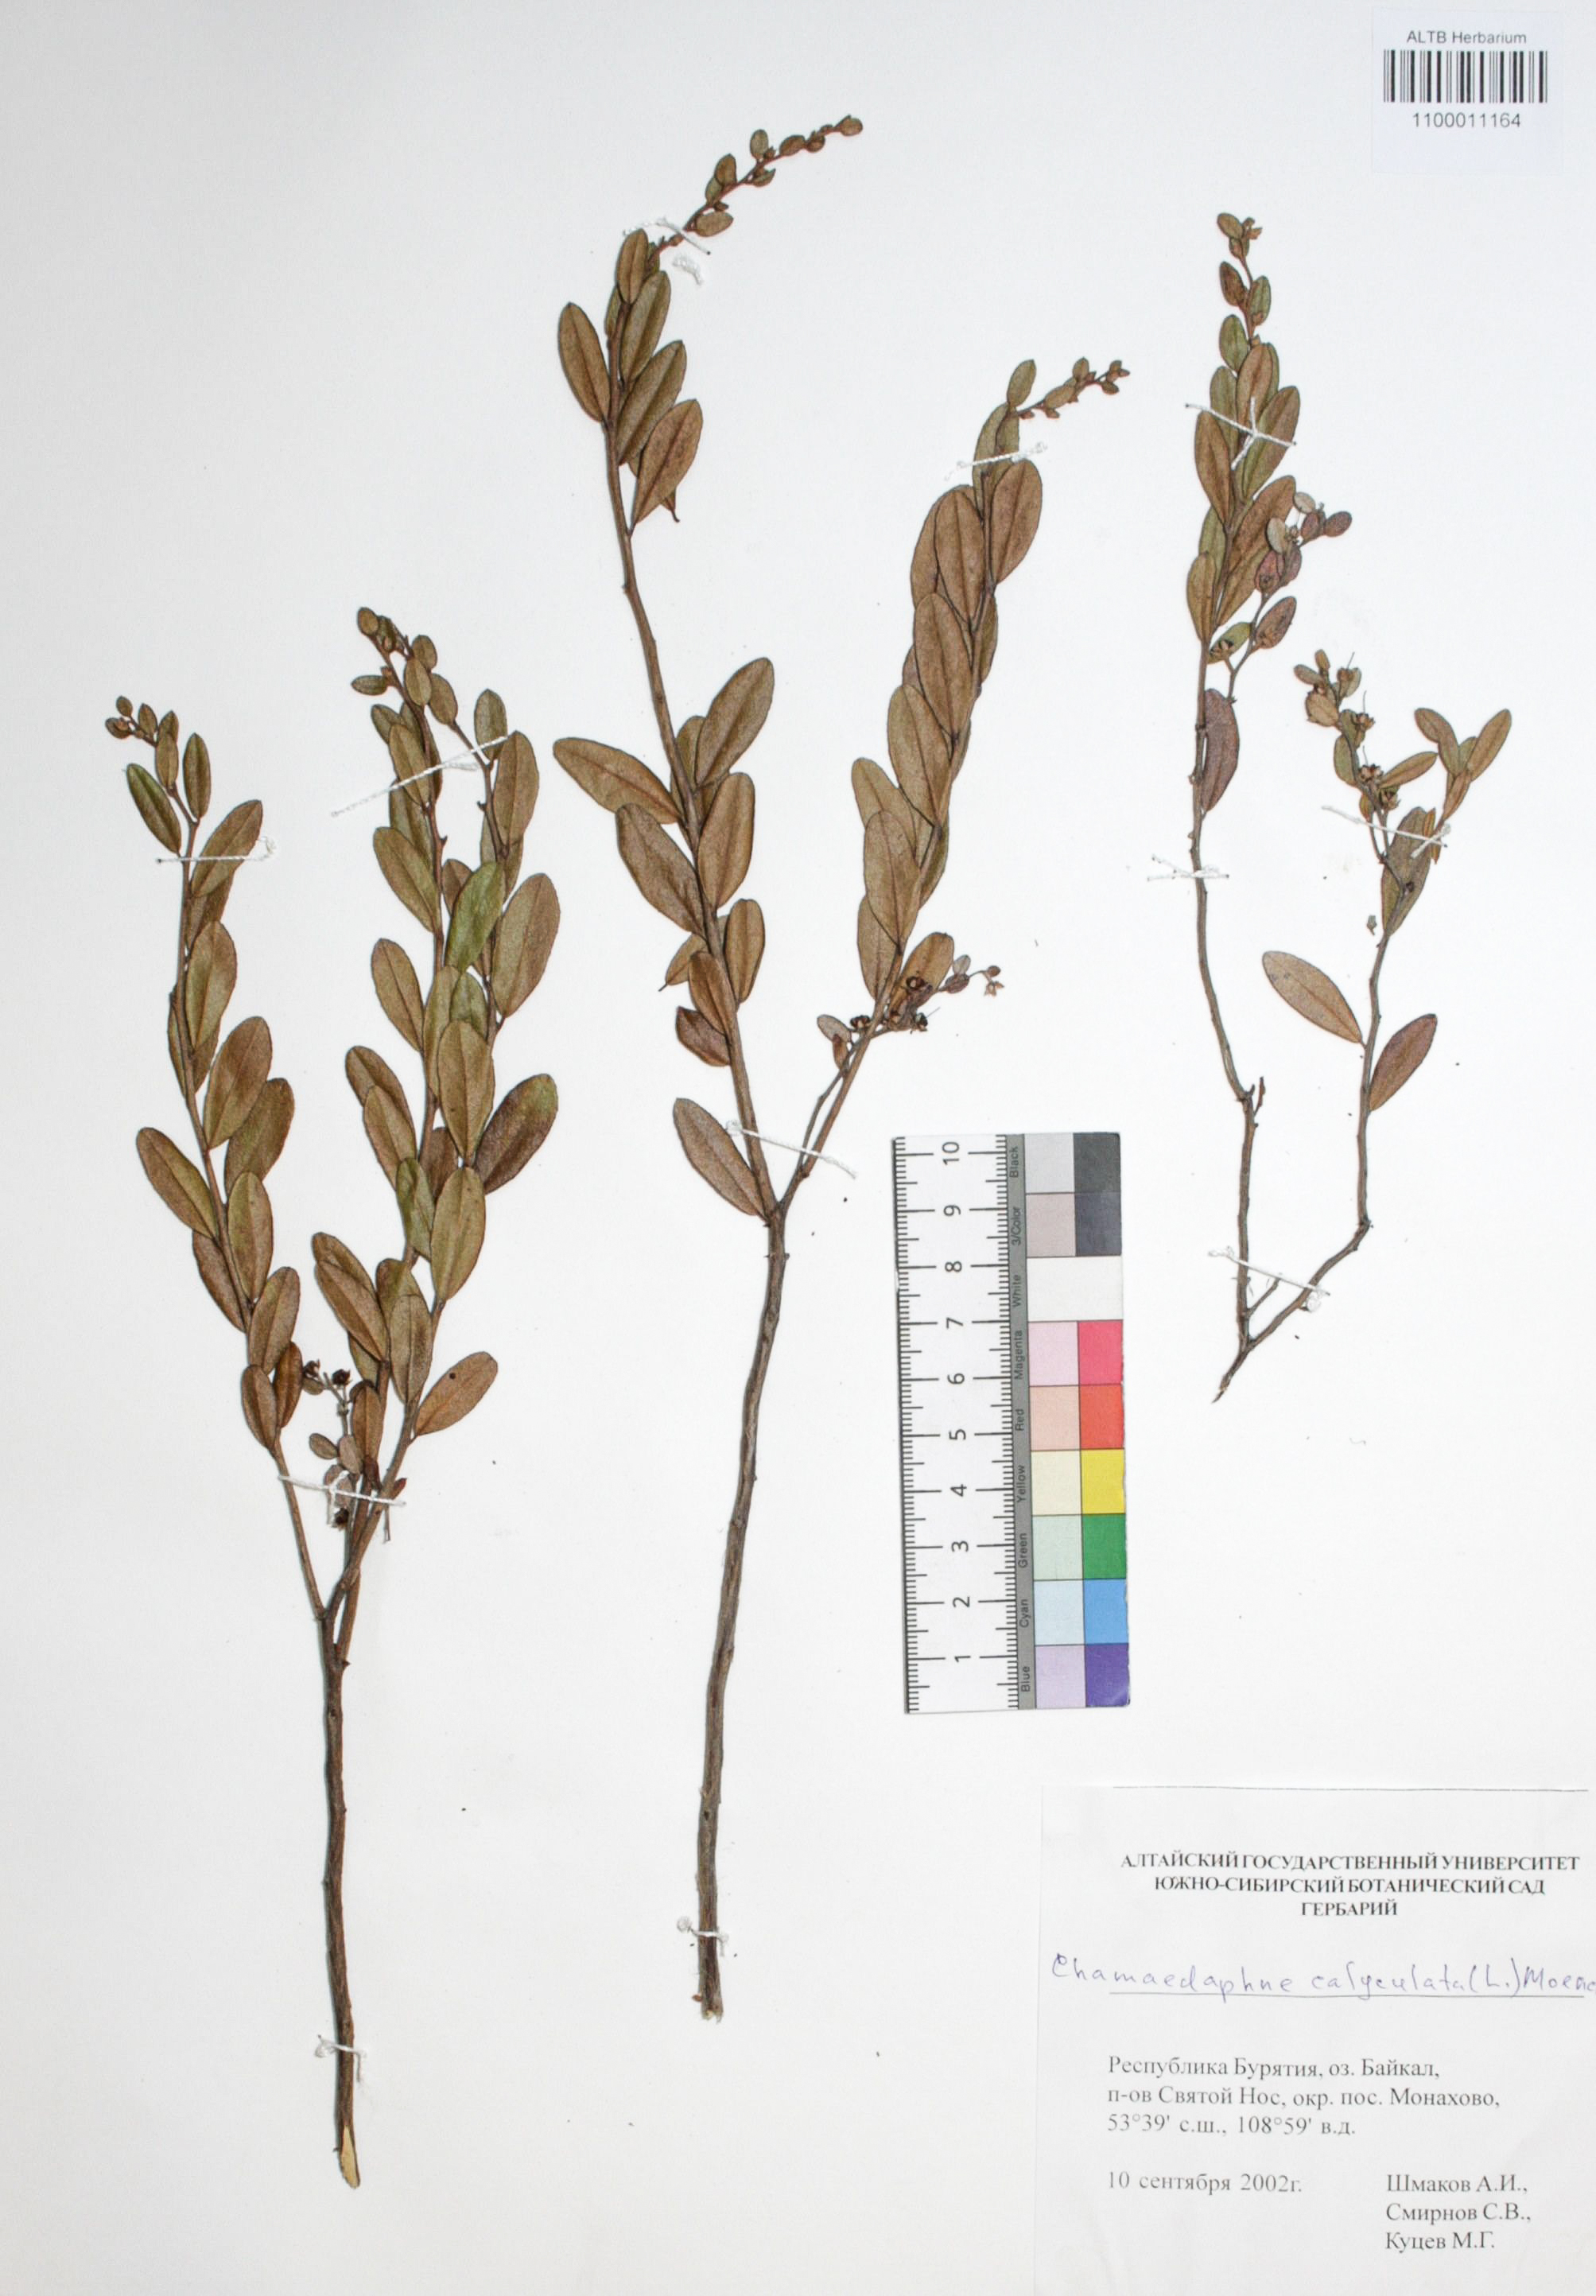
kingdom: Plantae
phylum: Tracheophyta
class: Magnoliopsida
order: Ericales
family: Ericaceae
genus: Chamaedaphne
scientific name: Chamaedaphne calyculata
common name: Leatherleaf
